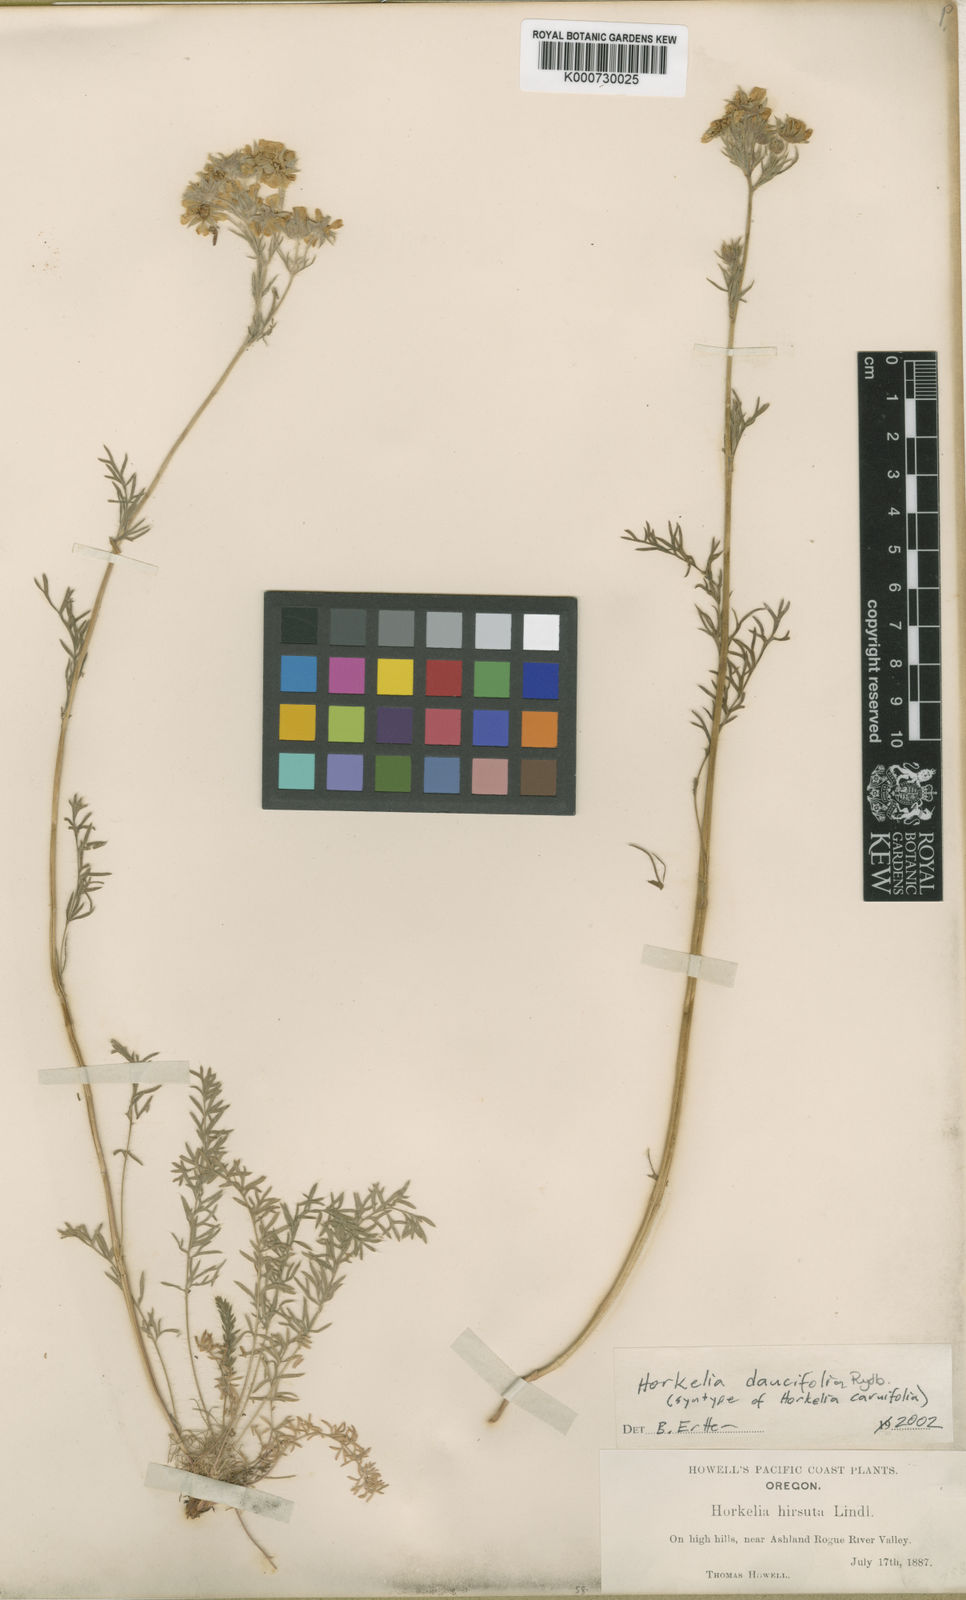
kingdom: Plantae
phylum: Tracheophyta
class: Magnoliopsida
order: Rosales
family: Rosaceae
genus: Potentilla
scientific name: Potentilla daucifolia
